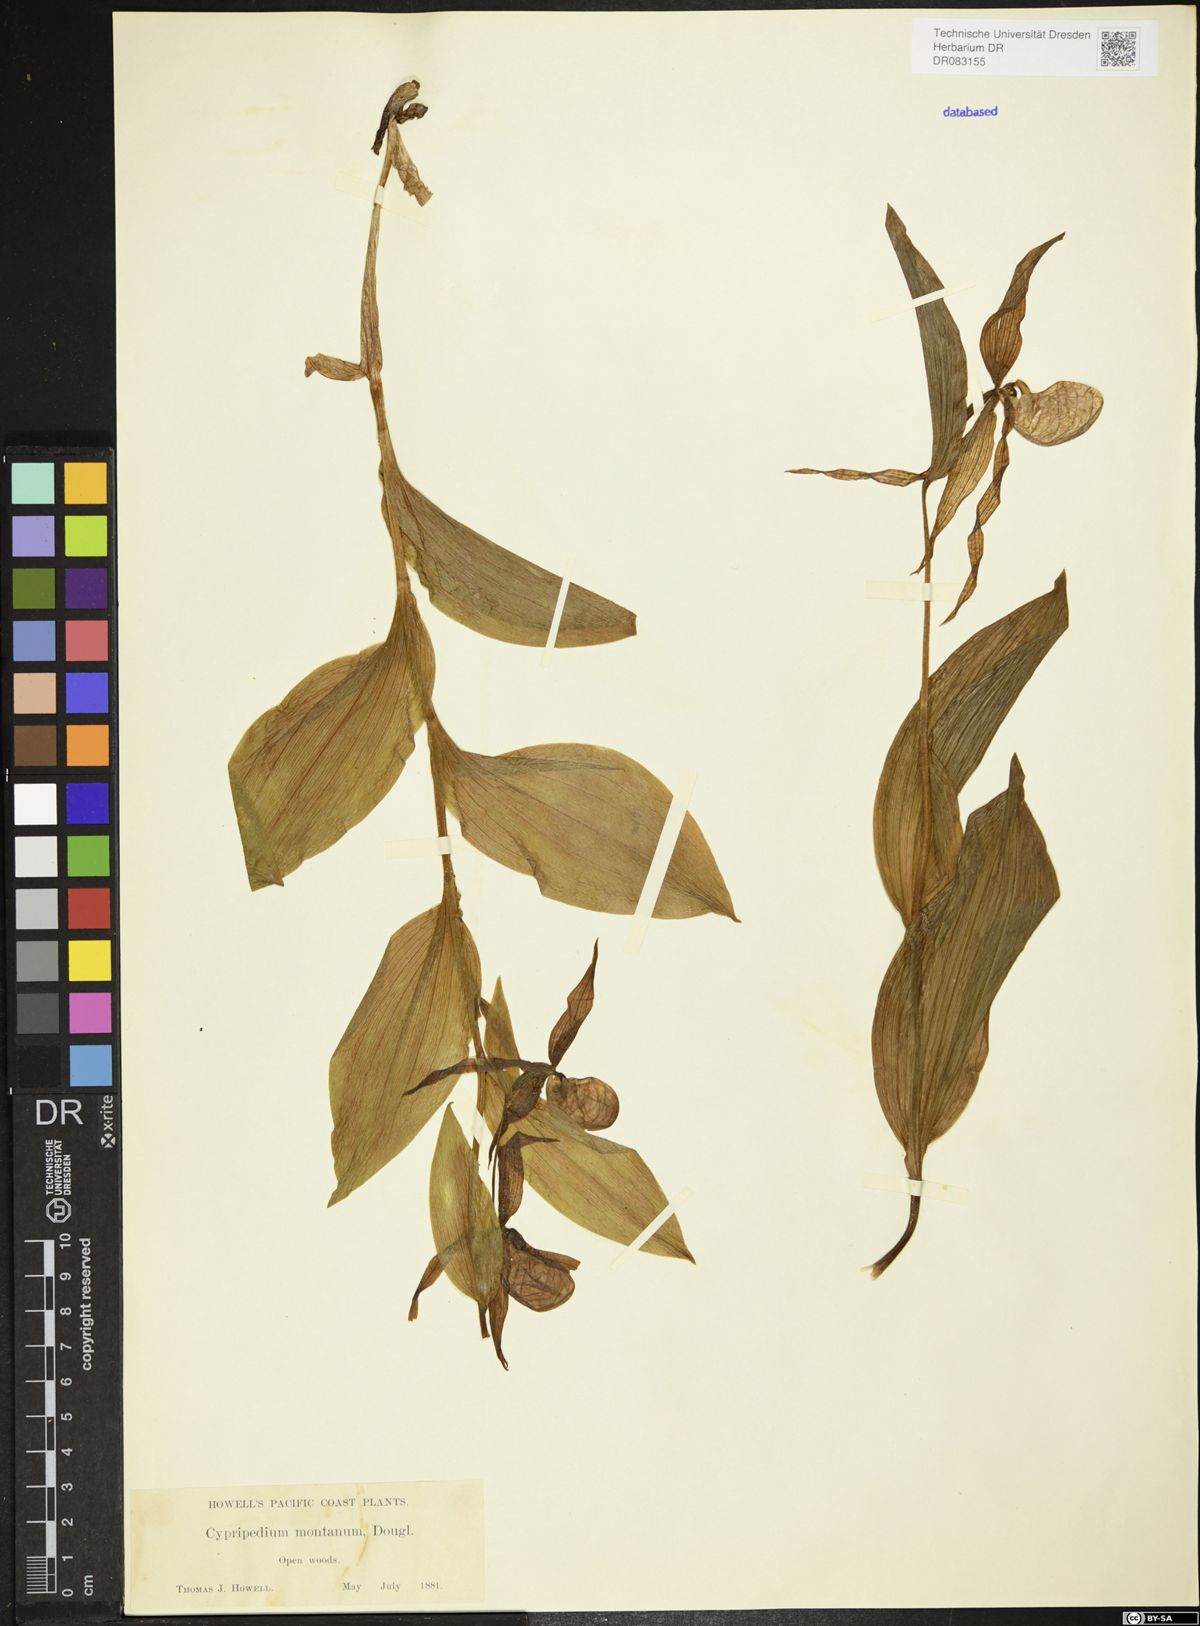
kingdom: Plantae
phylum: Tracheophyta
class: Liliopsida
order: Asparagales
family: Orchidaceae
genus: Cypripedium
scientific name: Cypripedium montanum
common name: Mountain lady's-slipper
